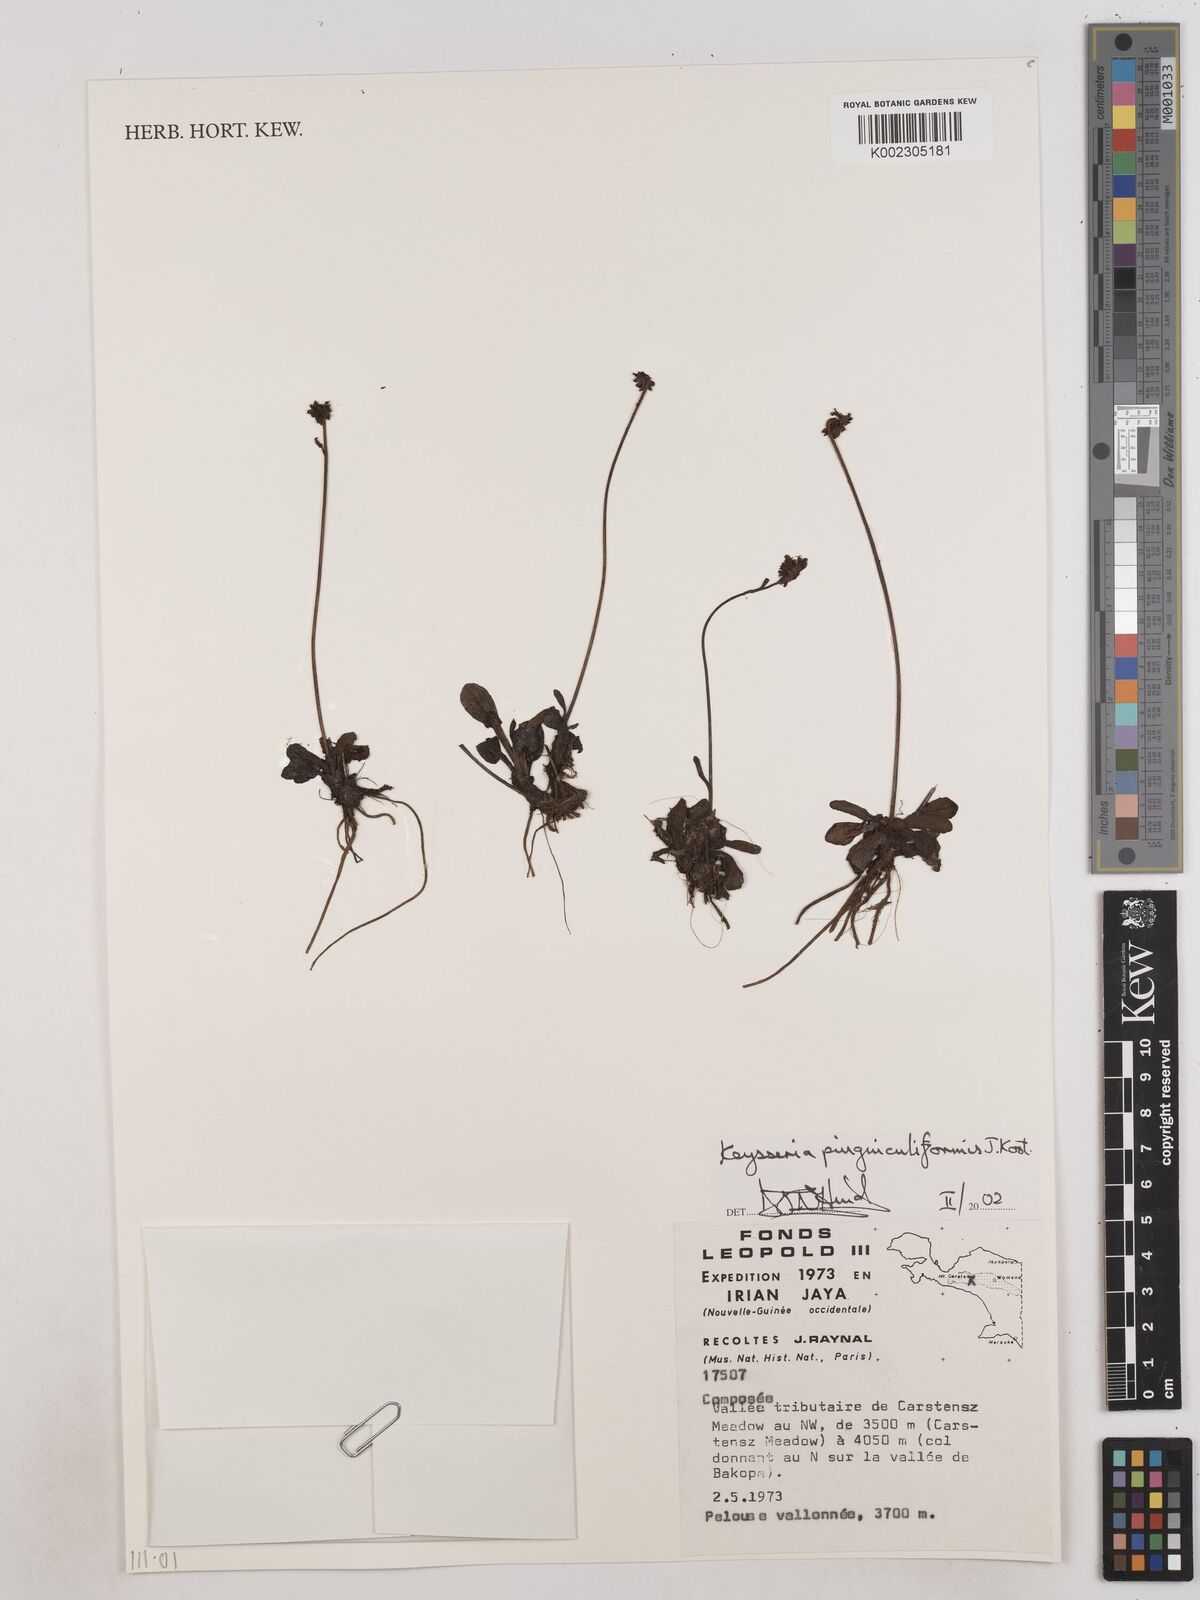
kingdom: Plantae
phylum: Tracheophyta
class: Magnoliopsida
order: Asterales
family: Asteraceae
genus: Keysseria
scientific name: Keysseria pinguiculiformis
